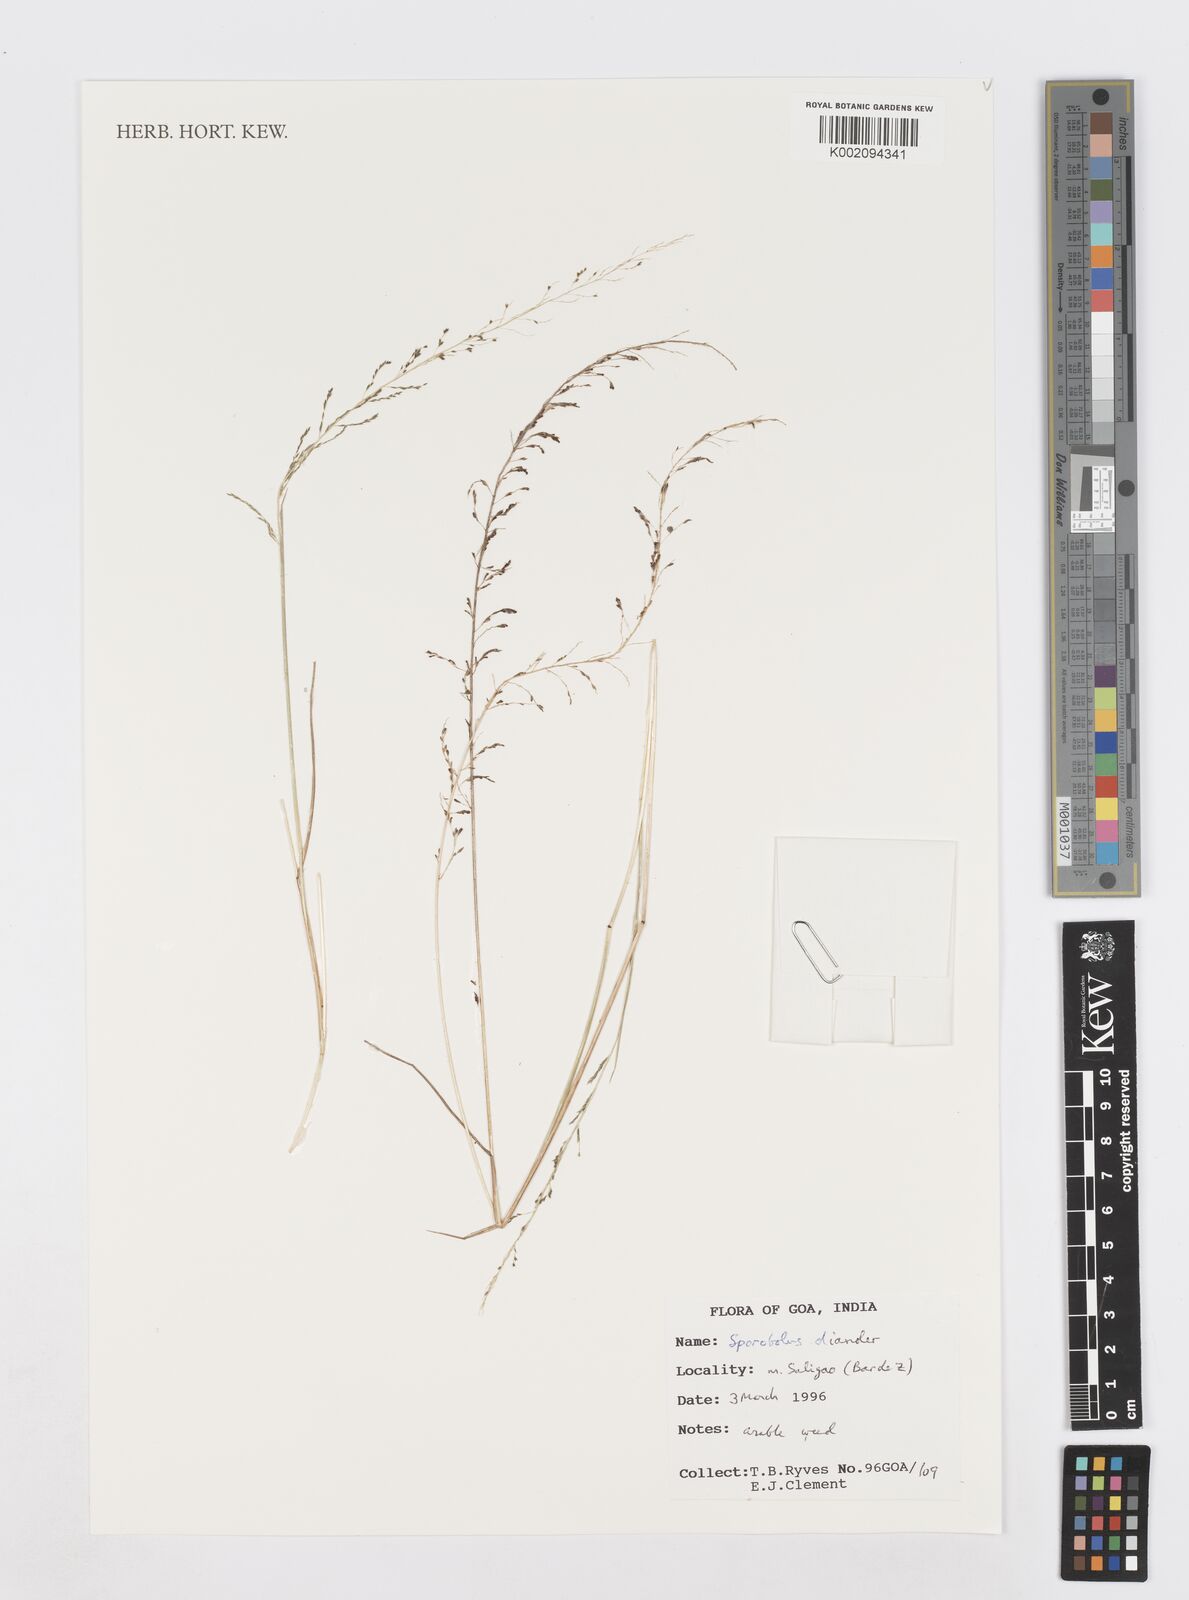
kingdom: Plantae
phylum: Tracheophyta
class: Liliopsida
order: Poales
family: Poaceae
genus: Sporobolus
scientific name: Sporobolus diandrus
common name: Tussock dropseed
